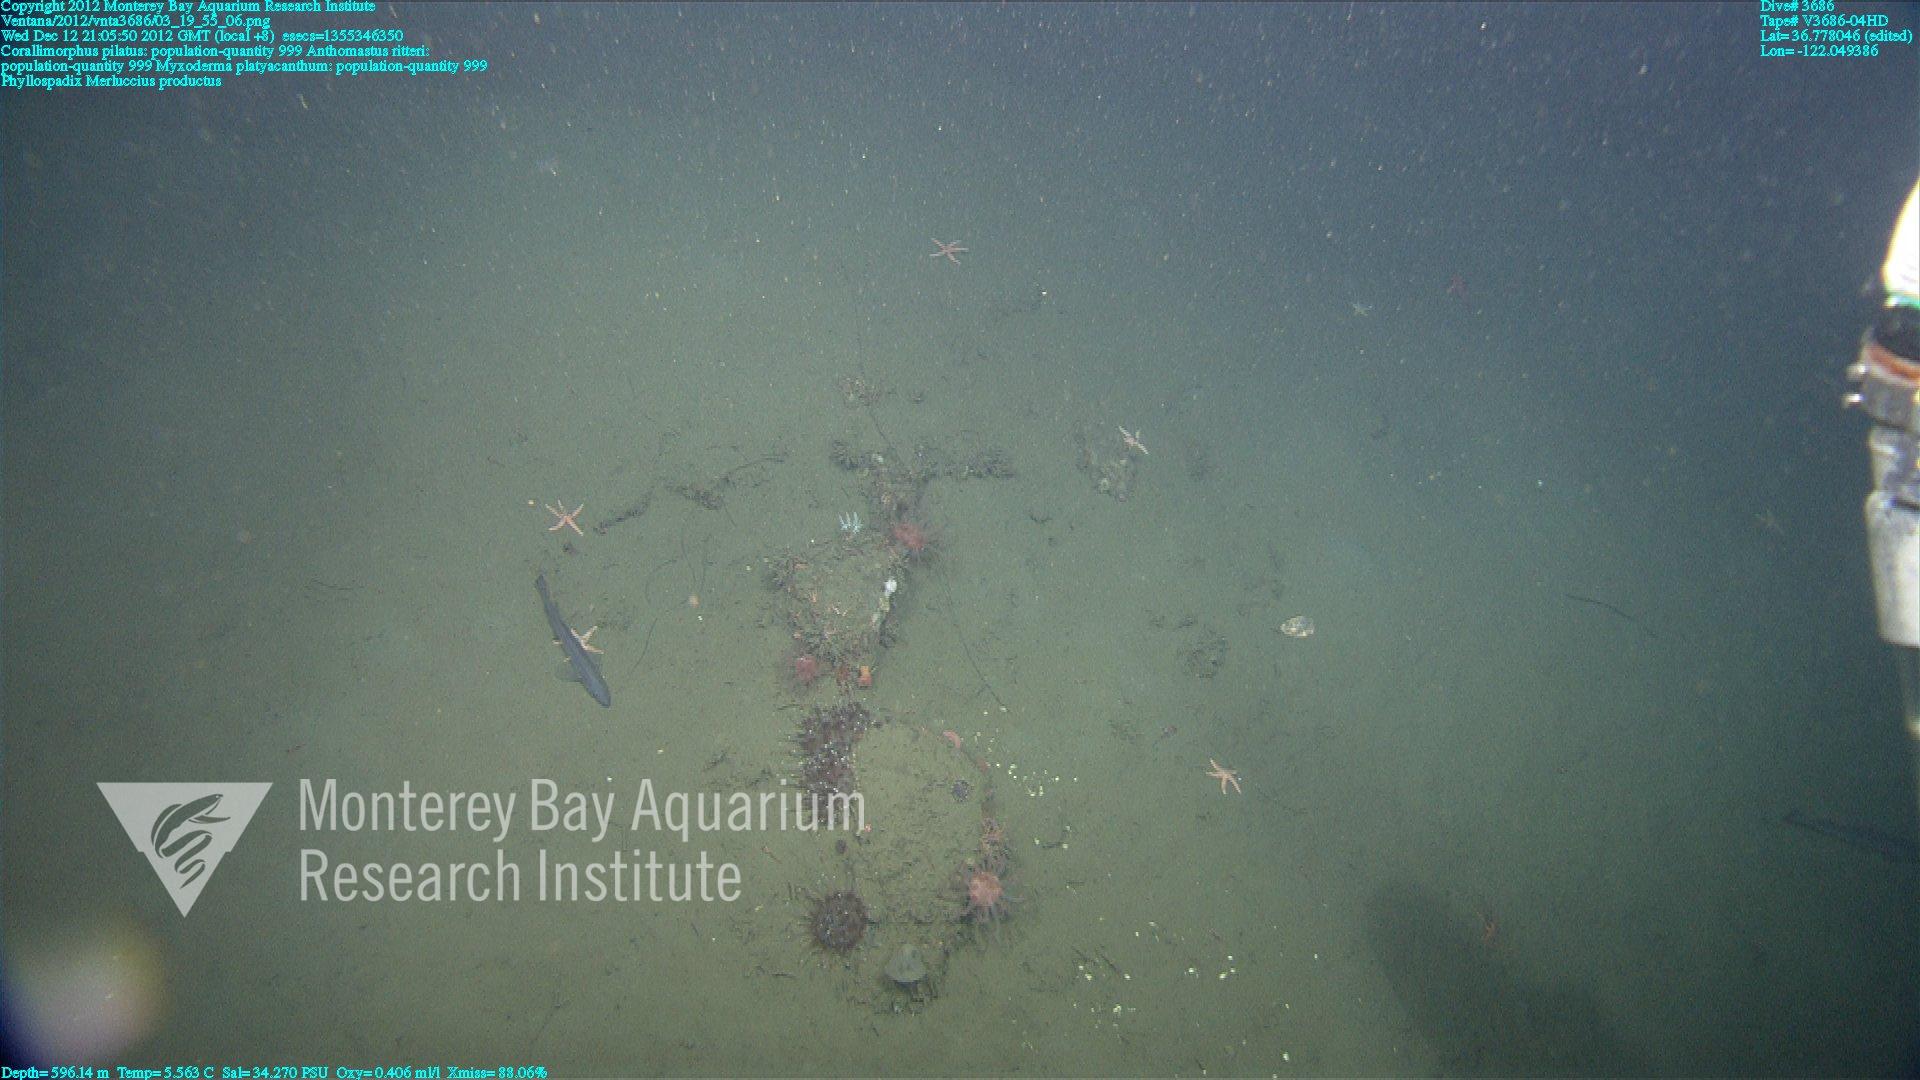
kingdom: Animalia
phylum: Cnidaria
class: Anthozoa
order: Scleralcyonacea
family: Coralliidae
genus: Heteropolypus
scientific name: Heteropolypus ritteri
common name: Ritter's soft coral
